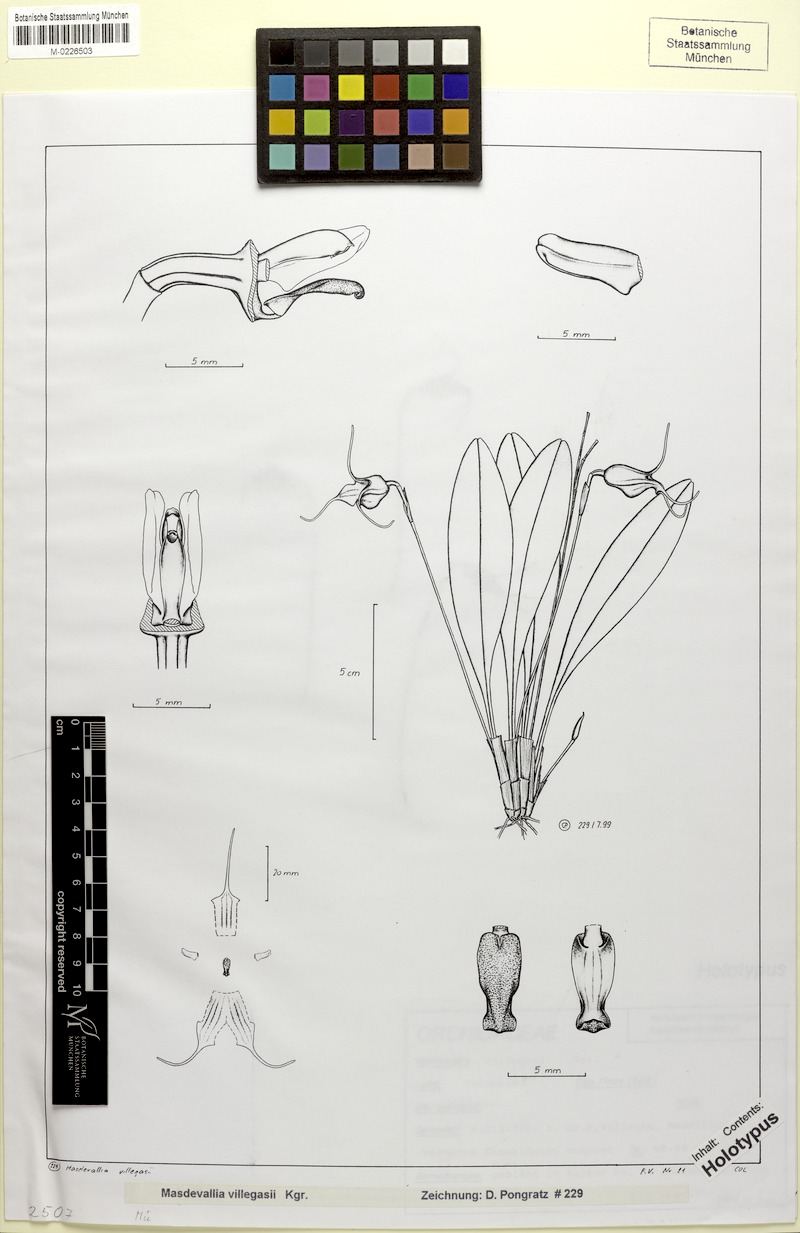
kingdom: Plantae
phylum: Tracheophyta
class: Liliopsida
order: Asparagales
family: Orchidaceae
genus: Masdevallia
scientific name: Masdevallia villegasii
